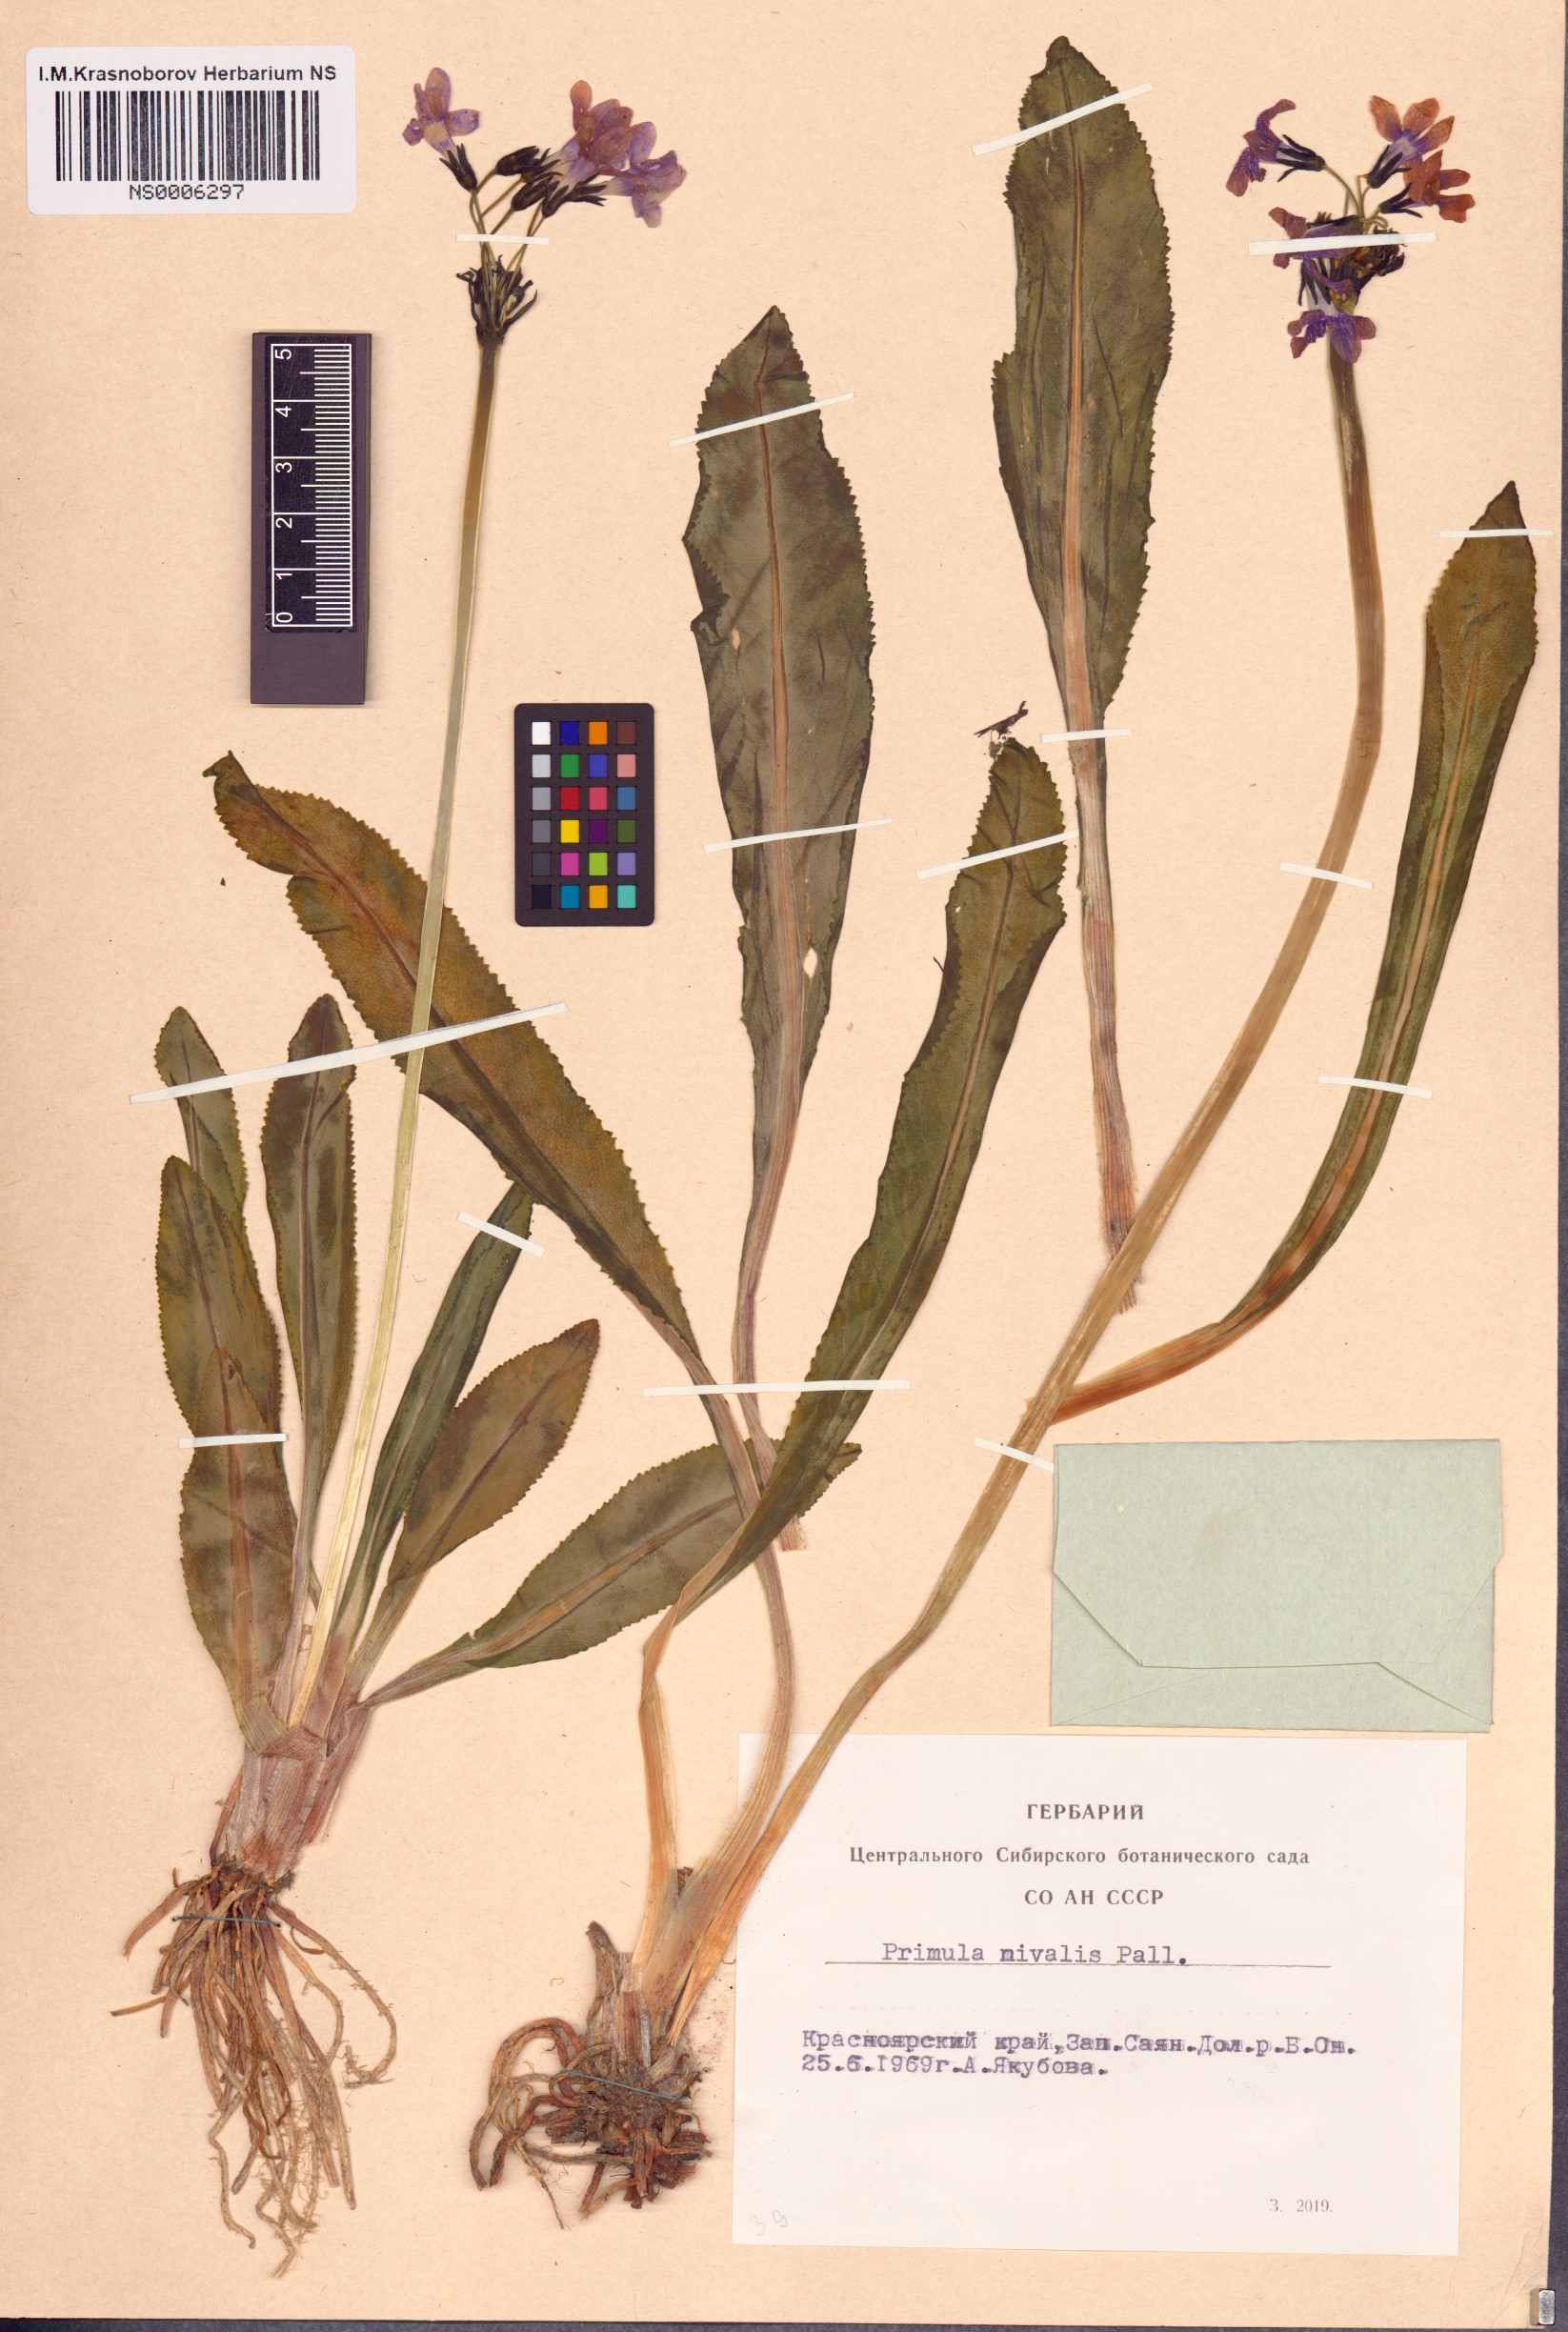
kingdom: Plantae
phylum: Tracheophyta
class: Magnoliopsida
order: Ericales
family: Primulaceae
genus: Primula
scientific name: Primula nivalis
